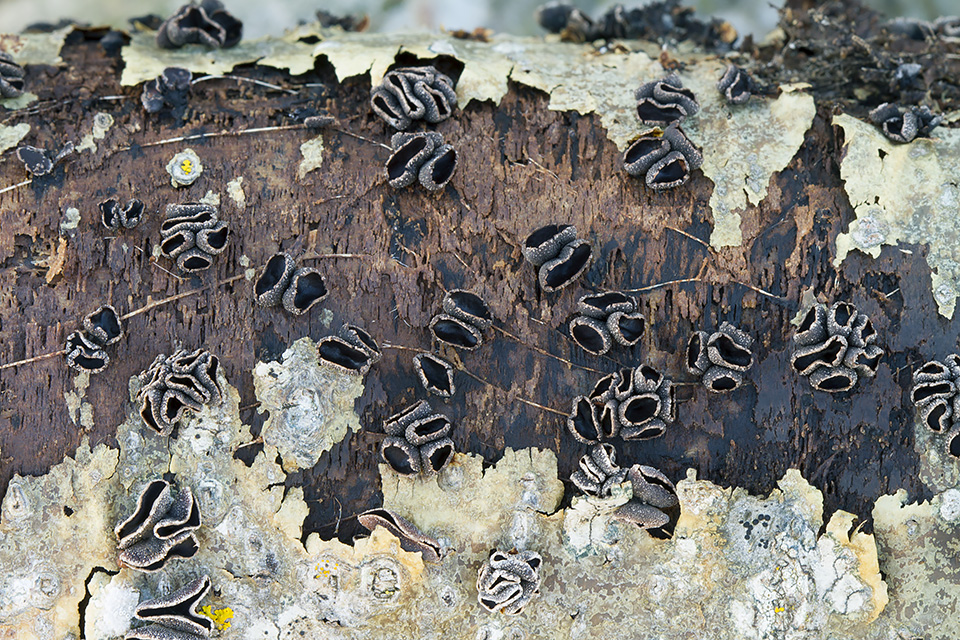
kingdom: Fungi
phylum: Ascomycota
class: Leotiomycetes
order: Helotiales
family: Sclerotiniaceae
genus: Sclerencoelia
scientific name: Sclerencoelia fascicularis
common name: poppel-læderskive
